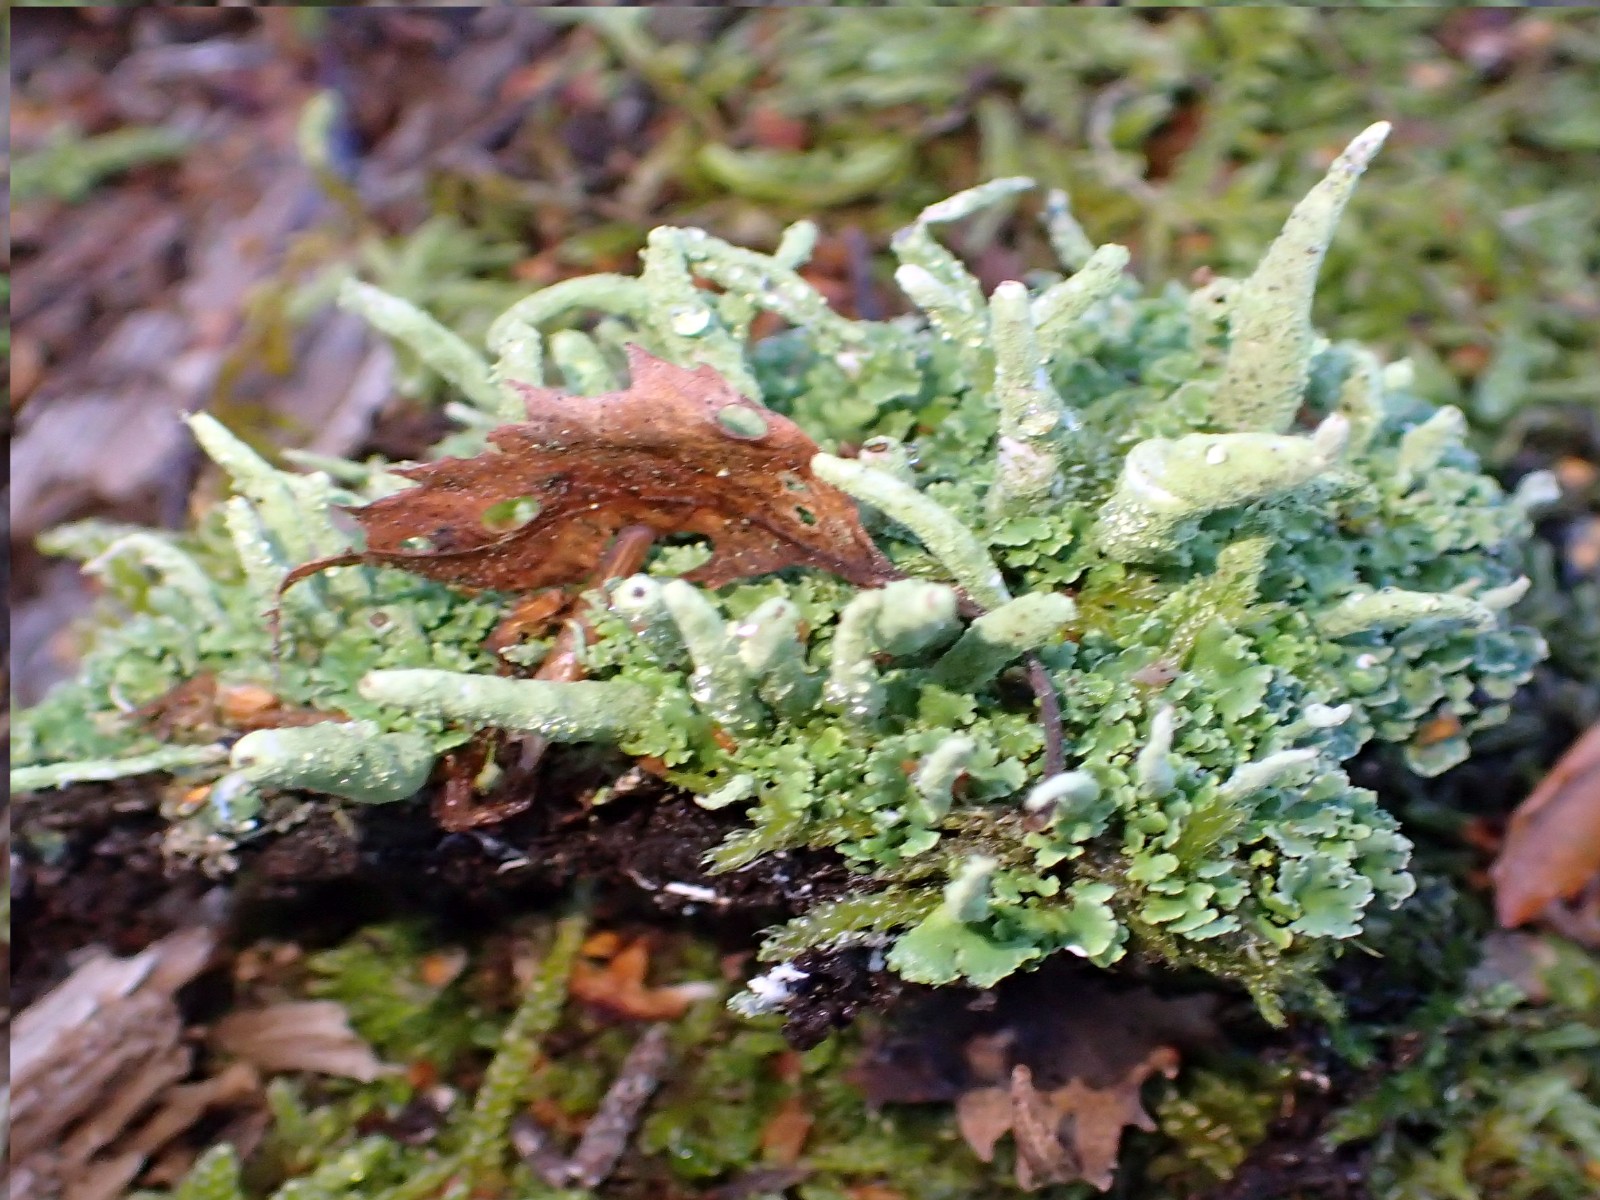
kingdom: Fungi
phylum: Ascomycota
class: Lecanoromycetes
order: Lecanorales
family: Cladoniaceae
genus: Cladonia
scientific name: Cladonia coniocraea
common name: træfods-bægerlav
